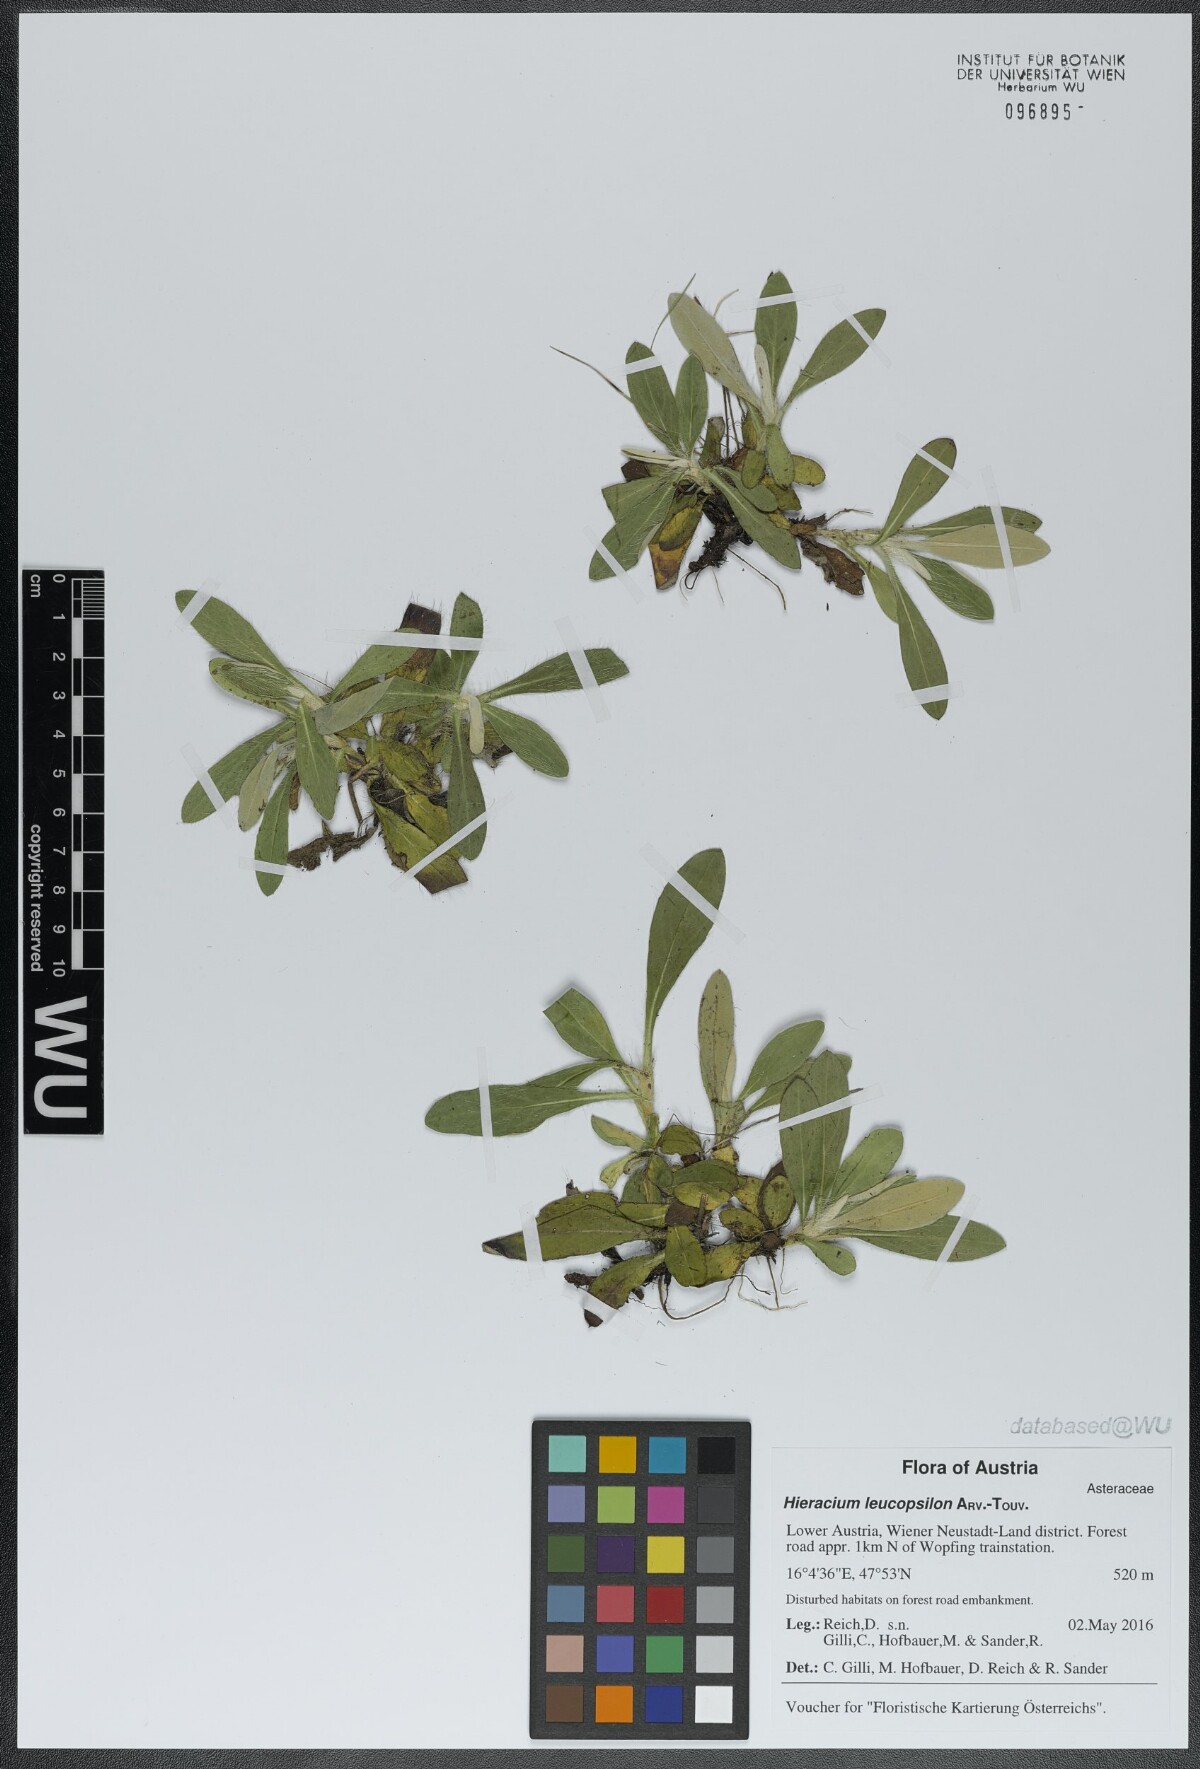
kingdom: Plantae
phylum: Tracheophyta
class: Magnoliopsida
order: Asterales
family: Asteraceae
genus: Pilosella
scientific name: Pilosella leucopsilon
